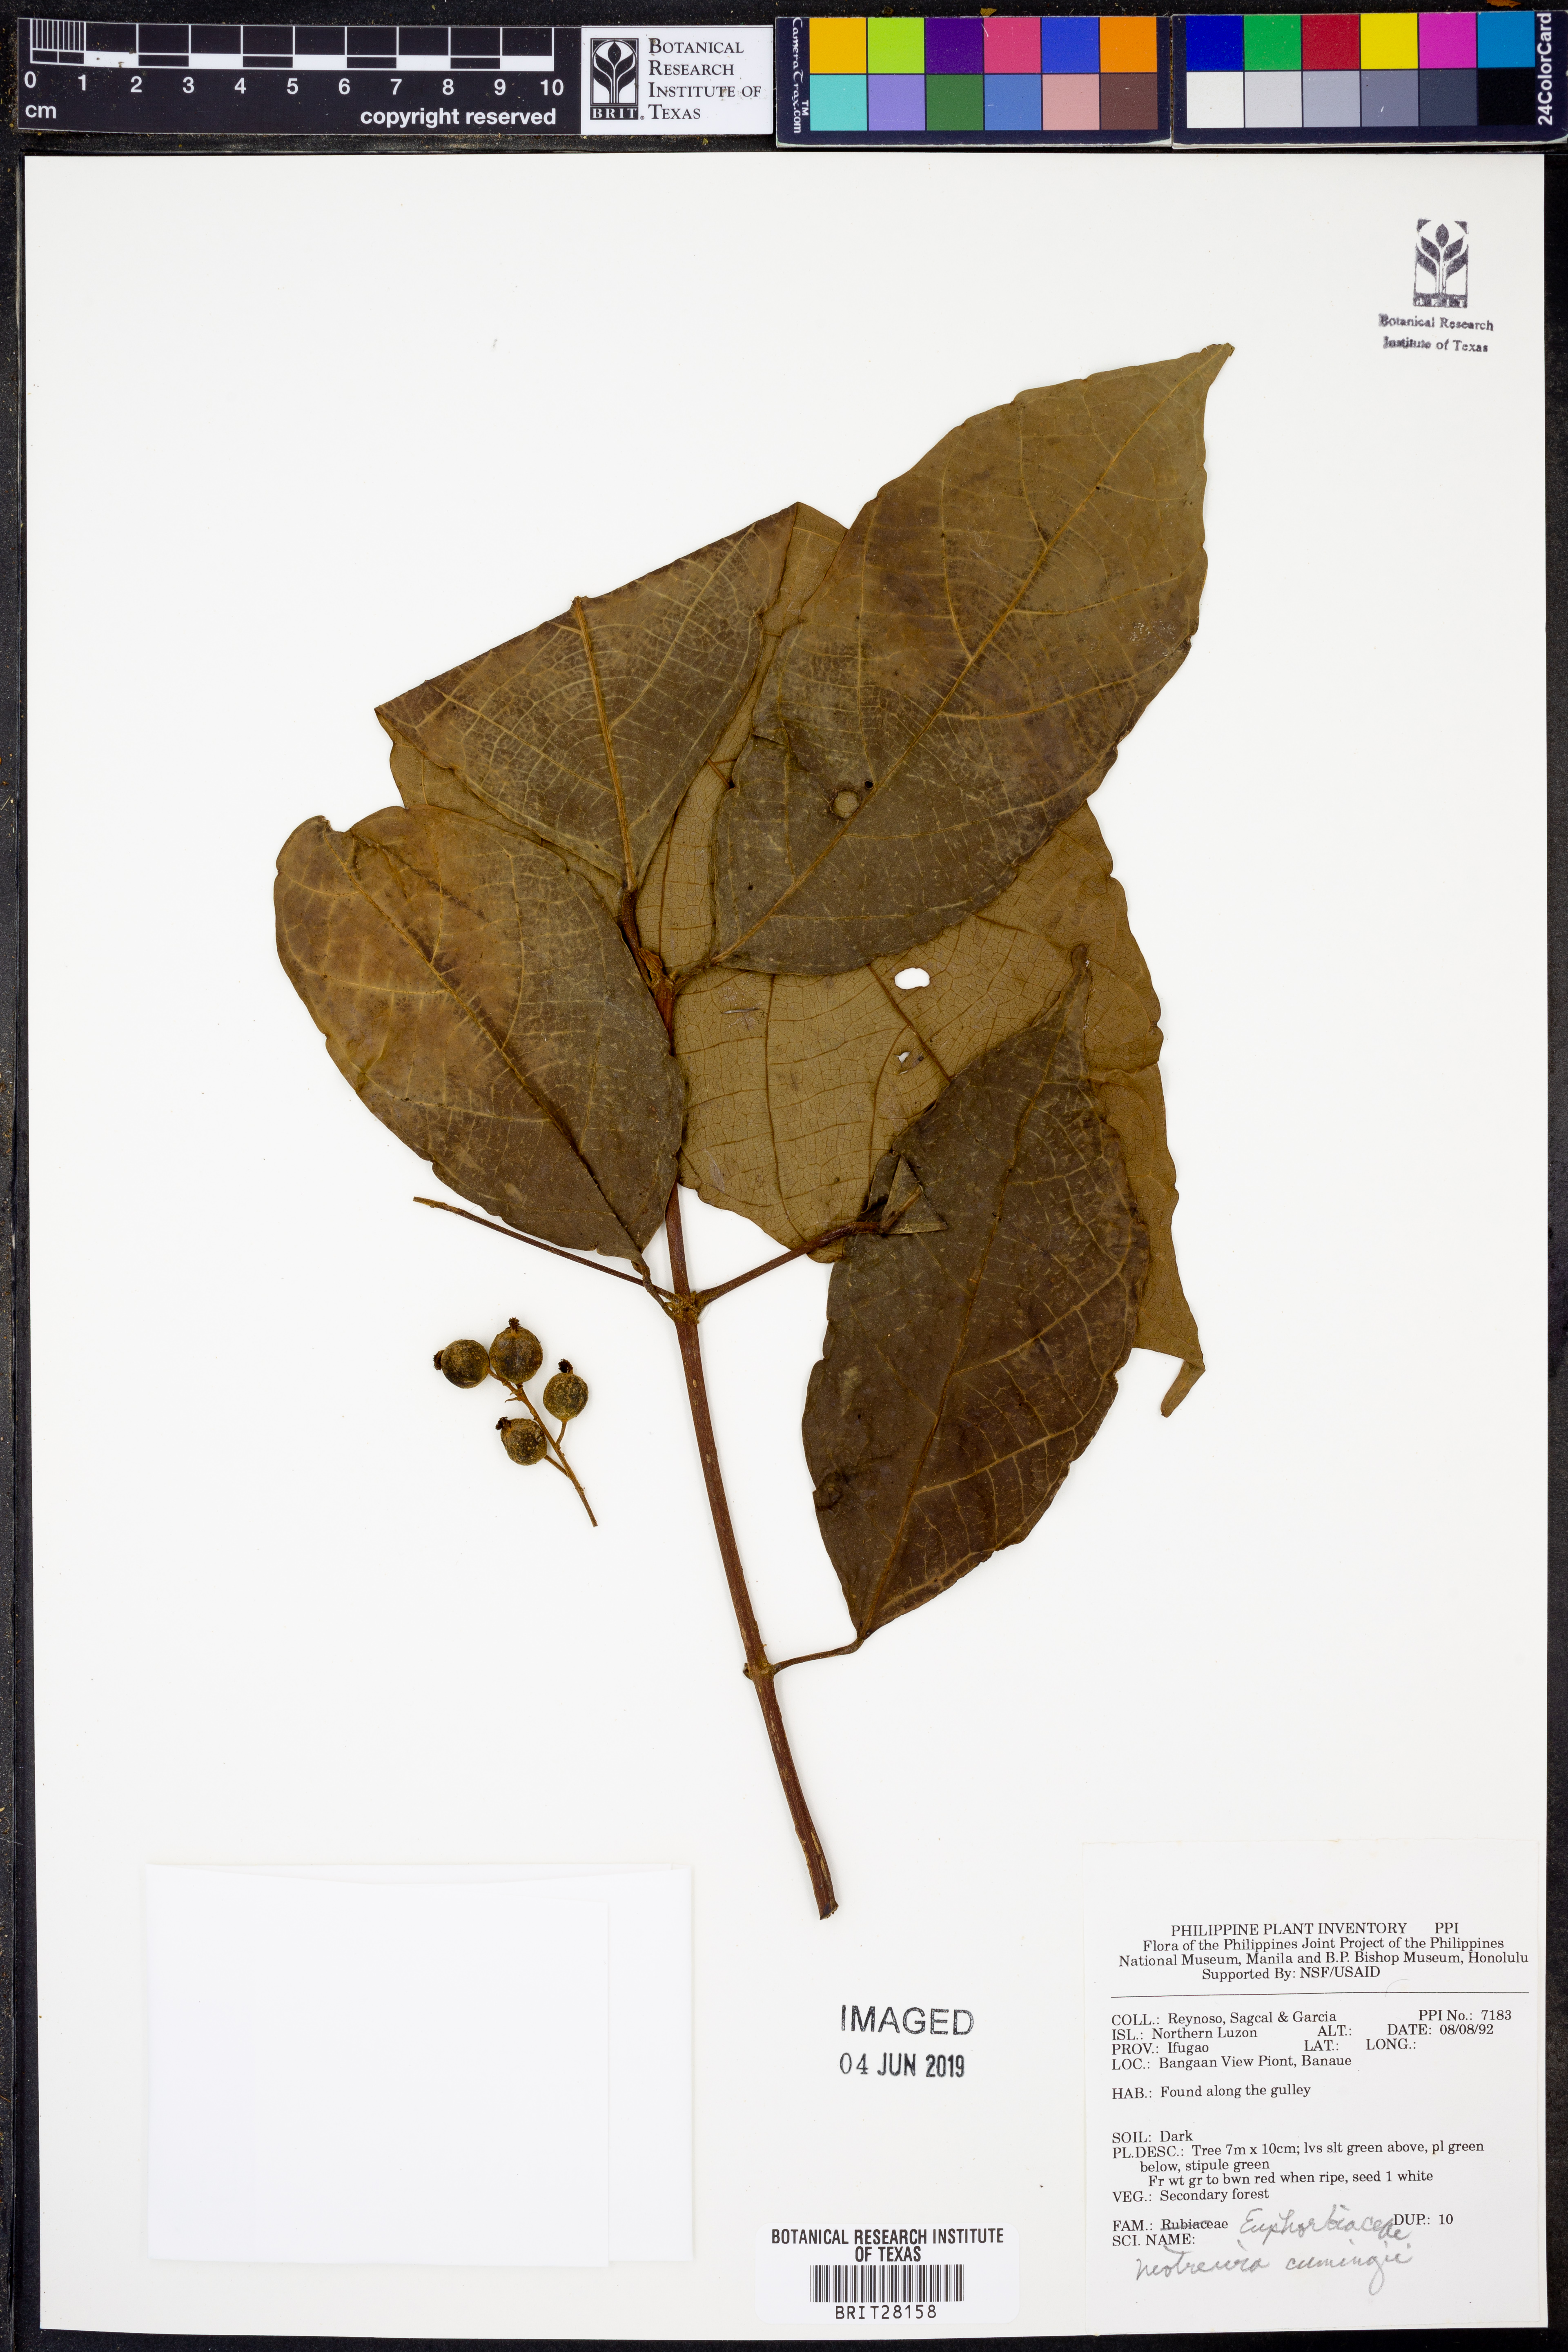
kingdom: Plantae
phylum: Tracheophyta
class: Magnoliopsida
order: Malpighiales
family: Euphorbiaceae
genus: Mallotus
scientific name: Mallotus cumingii
